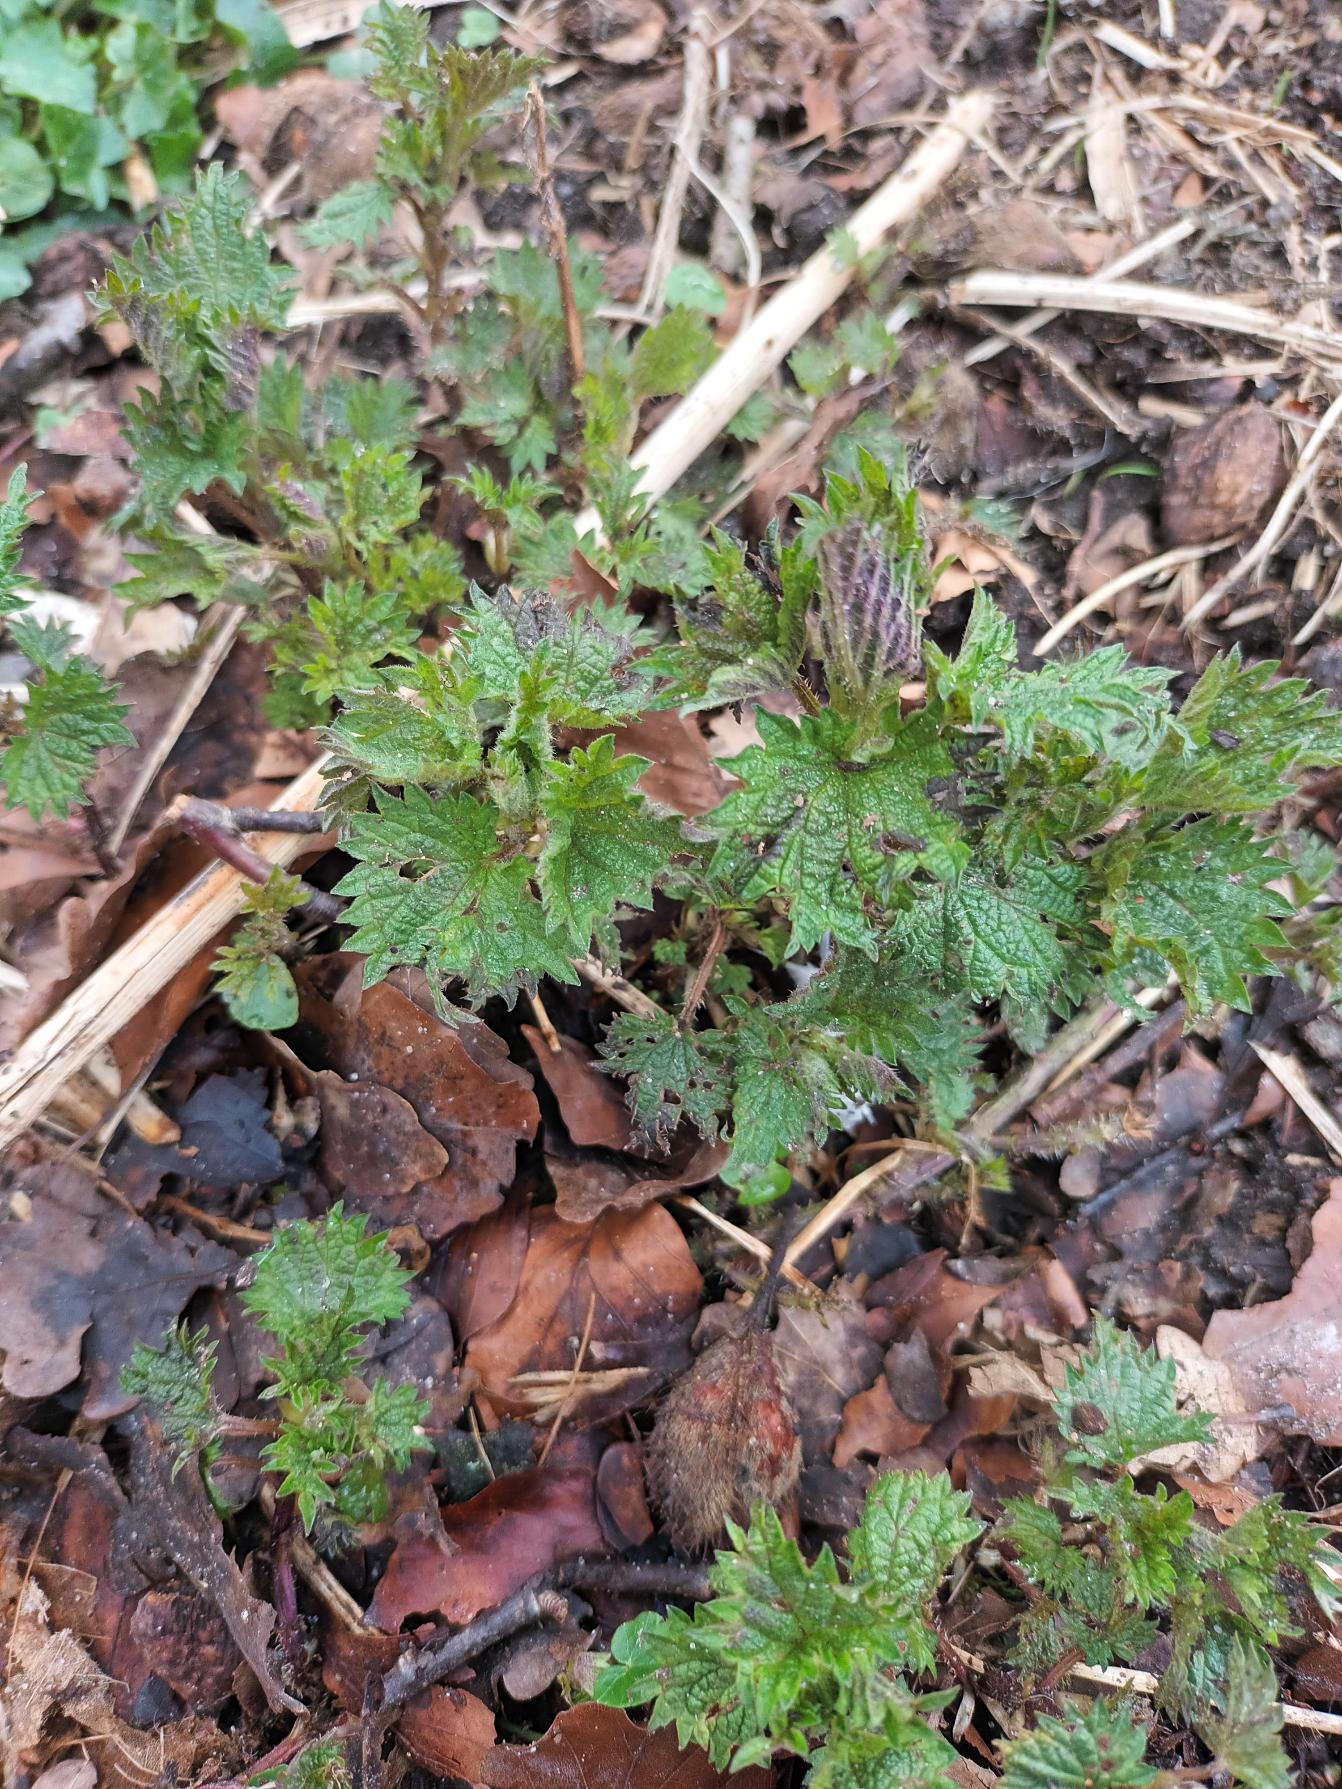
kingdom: Plantae
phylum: Tracheophyta
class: Magnoliopsida
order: Rosales
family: Urticaceae
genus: Urtica
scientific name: Urtica dioica
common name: Stor nælde
